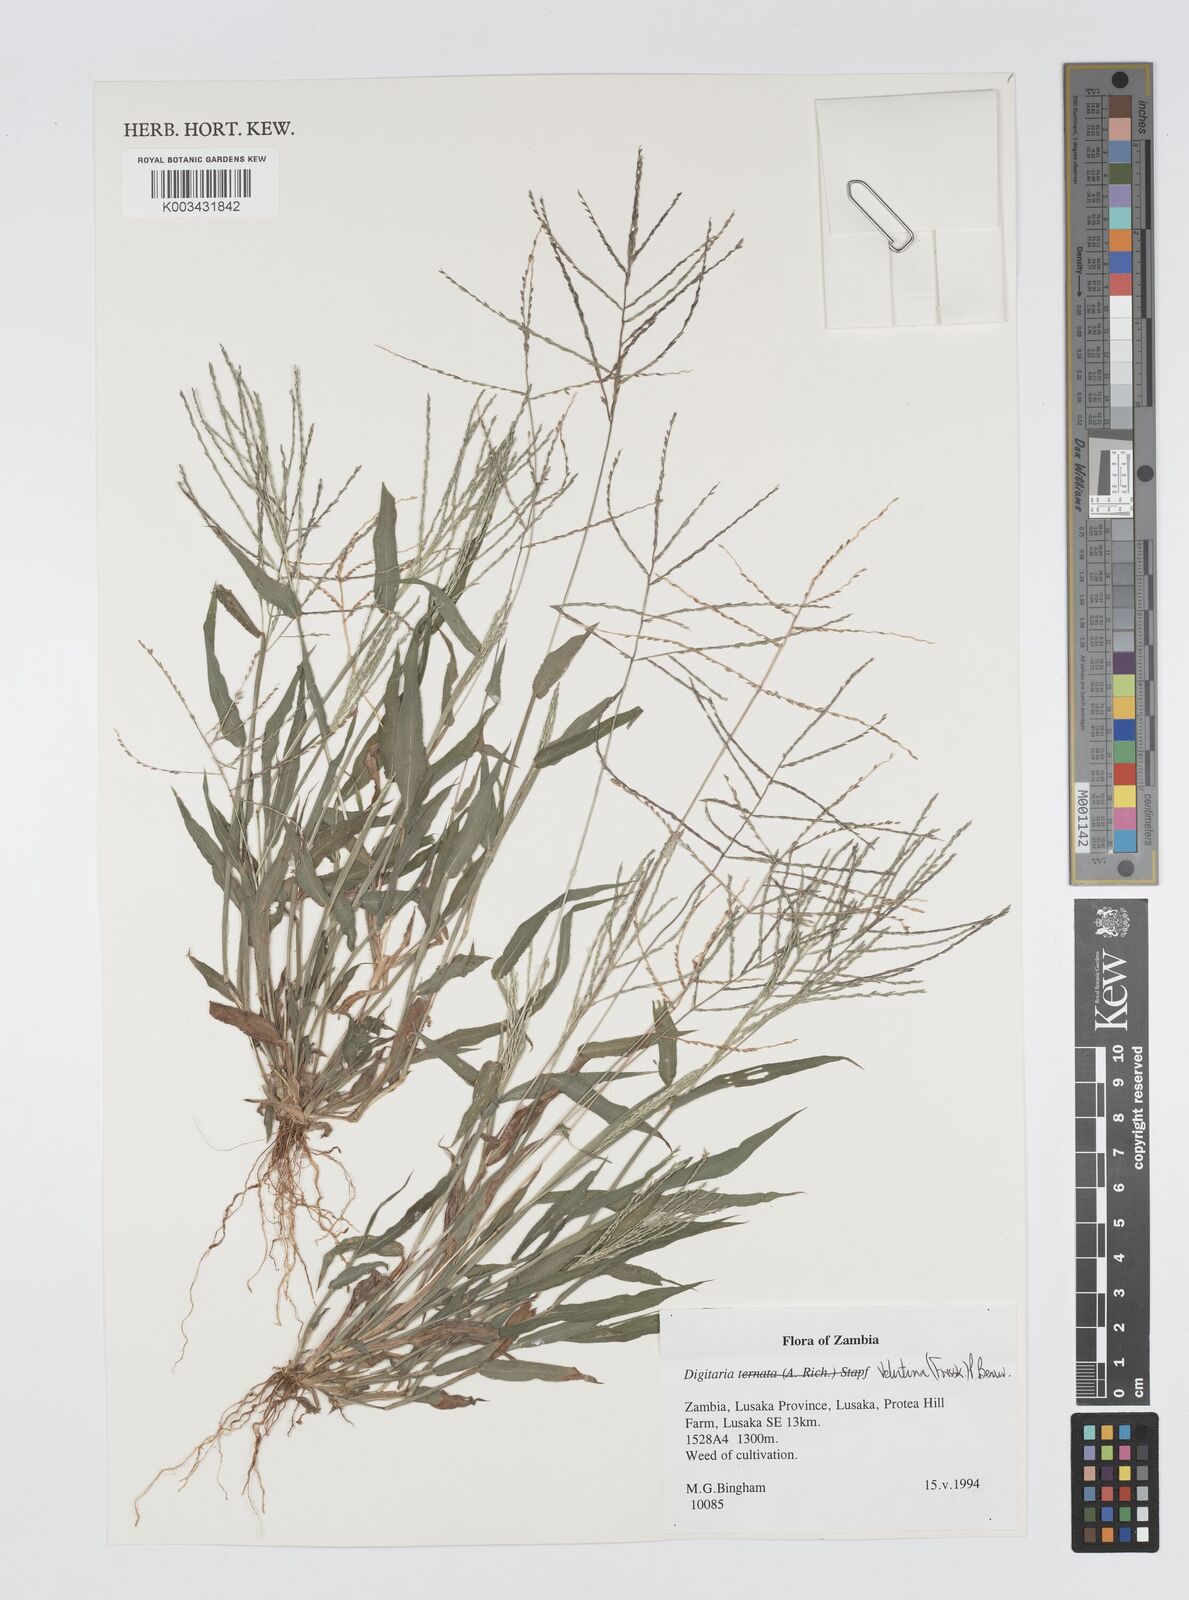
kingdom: Plantae
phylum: Tracheophyta
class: Liliopsida
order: Poales
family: Poaceae
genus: Digitaria
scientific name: Digitaria velutina
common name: Long-plume finger grass
